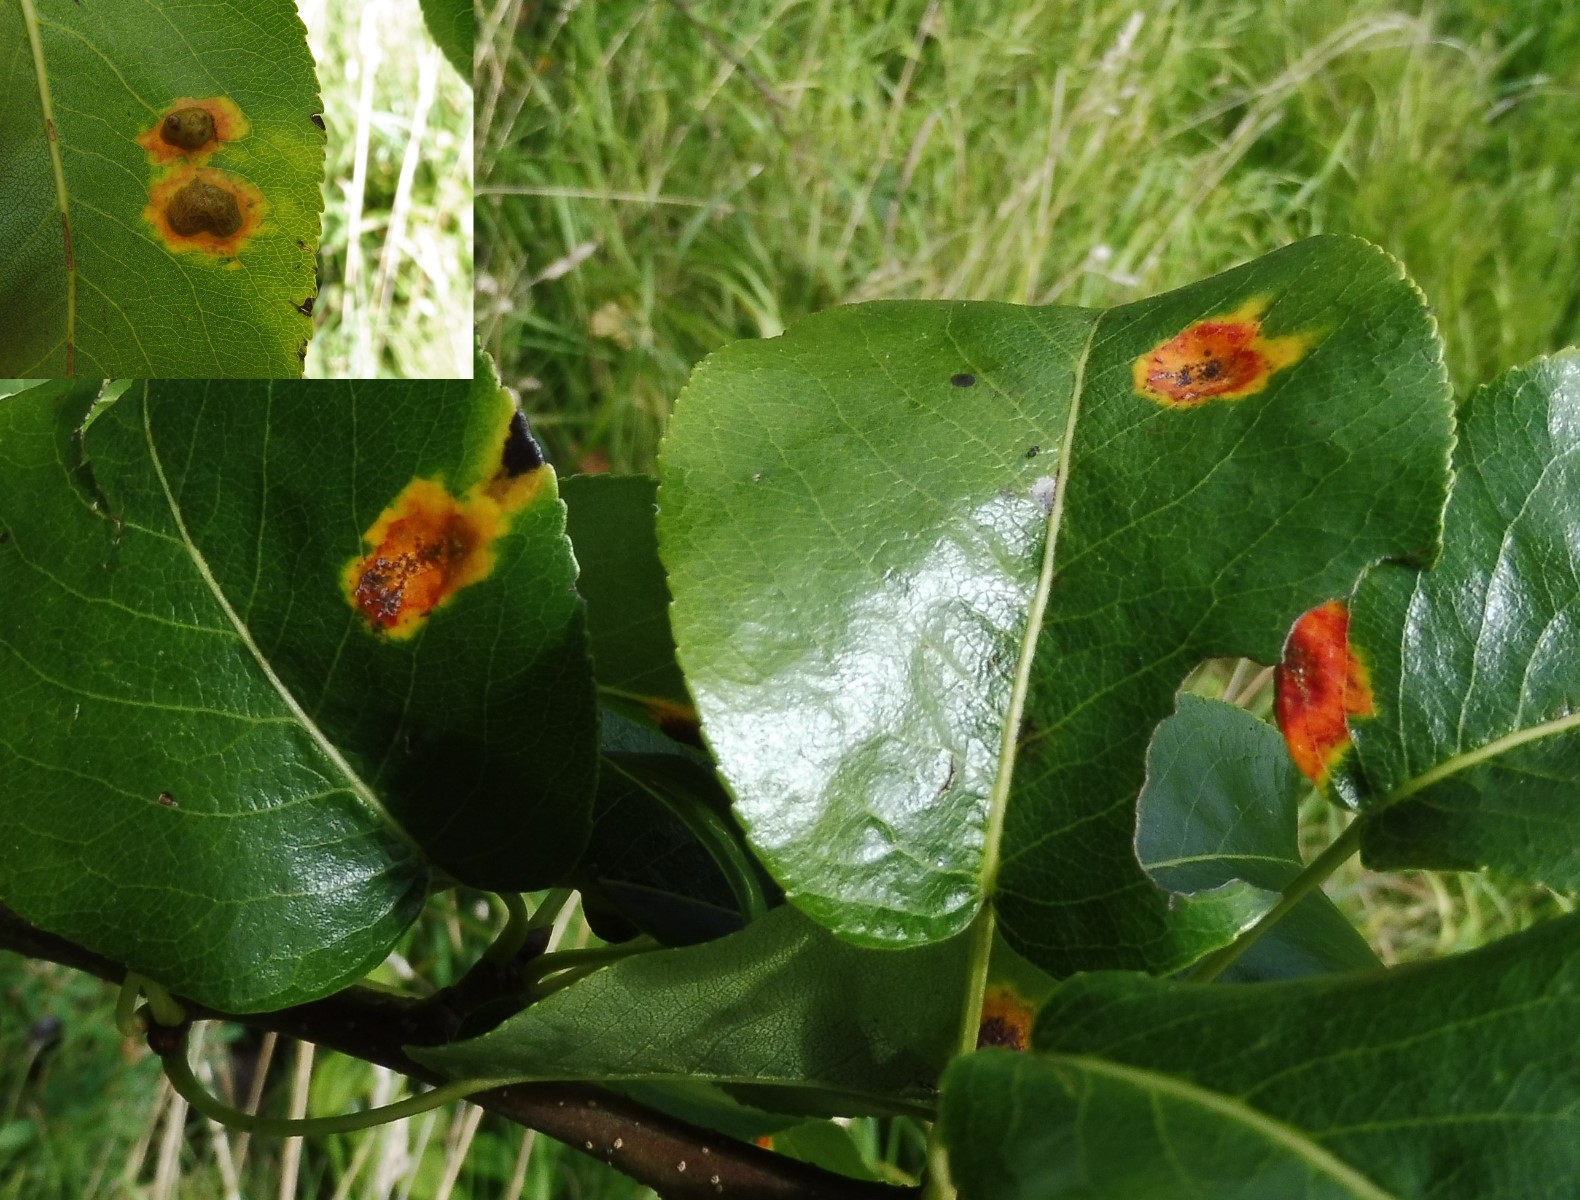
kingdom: Fungi
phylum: Basidiomycota
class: Pucciniomycetes
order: Pucciniales
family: Gymnosporangiaceae
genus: Gymnosporangium
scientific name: Gymnosporangium sabinae
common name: pæregitter-bævrerust
